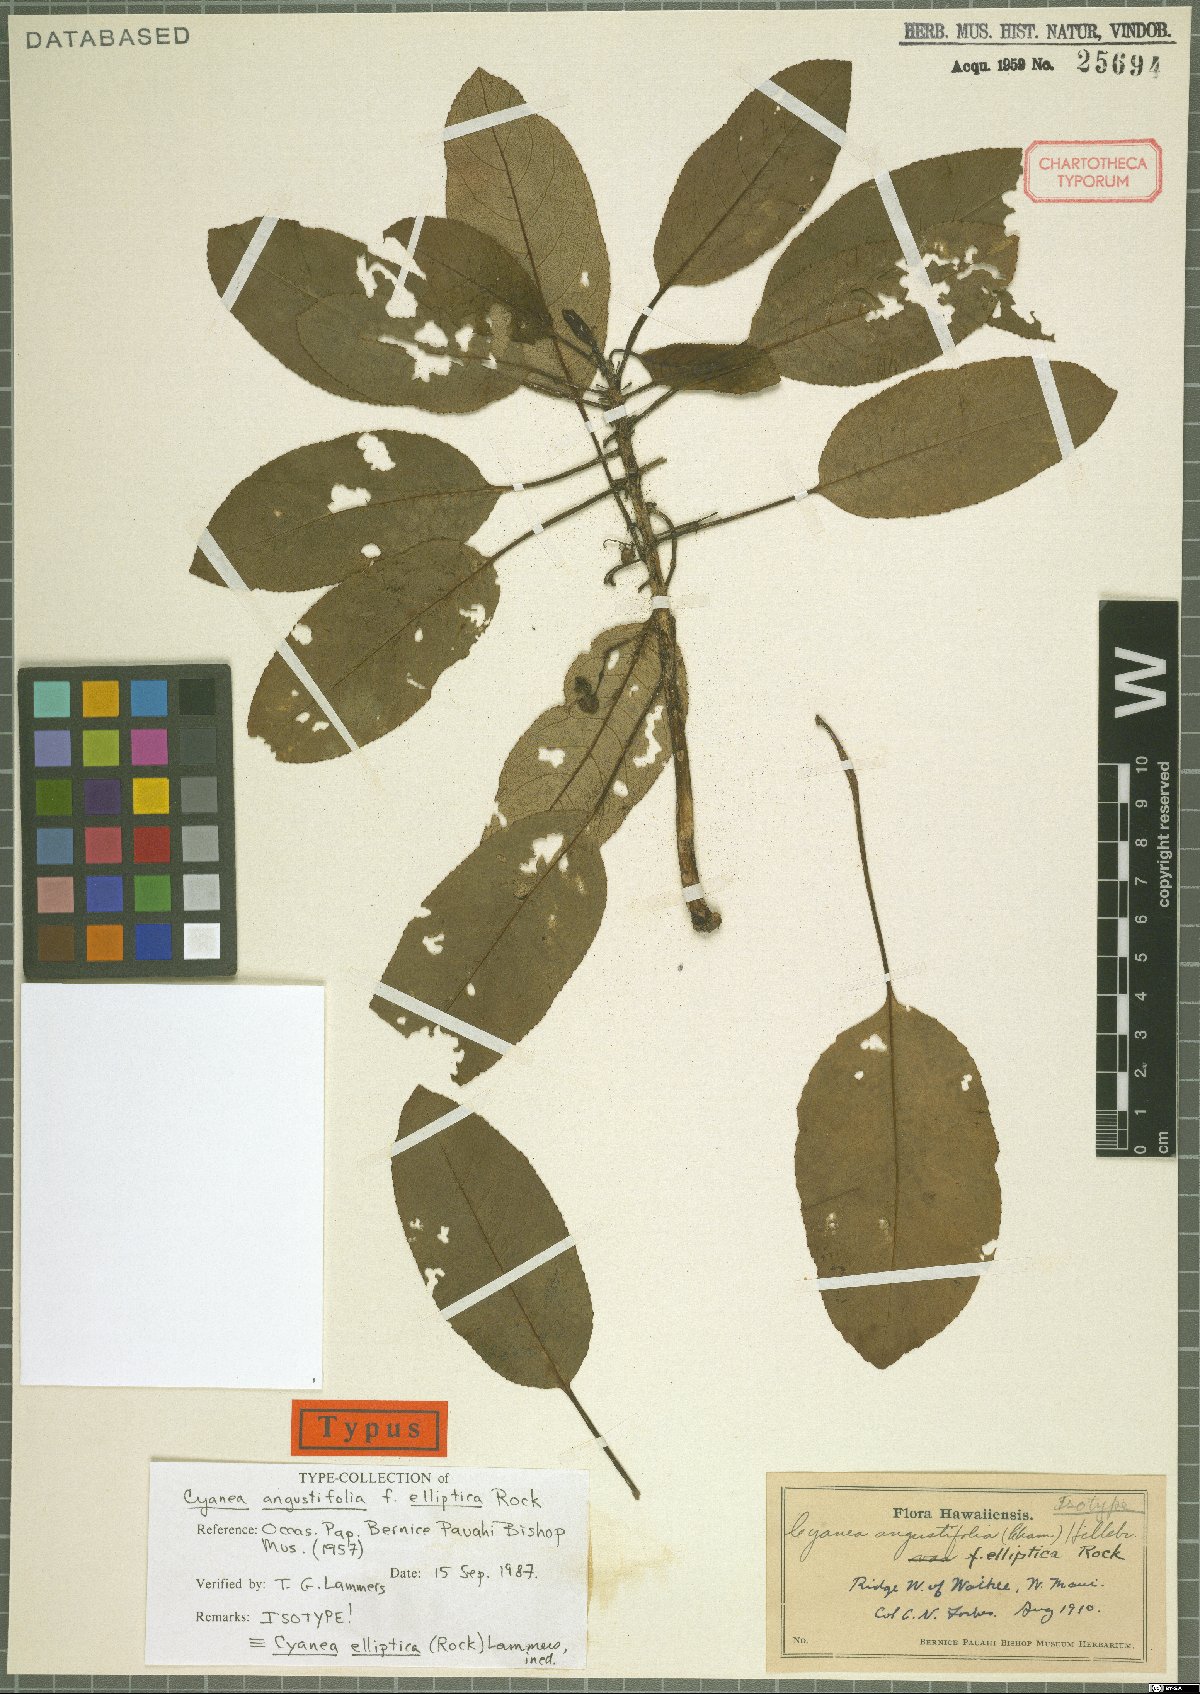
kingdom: Plantae
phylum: Tracheophyta
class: Magnoliopsida
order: Asterales
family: Campanulaceae
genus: Cyanea
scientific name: Cyanea elliptica
